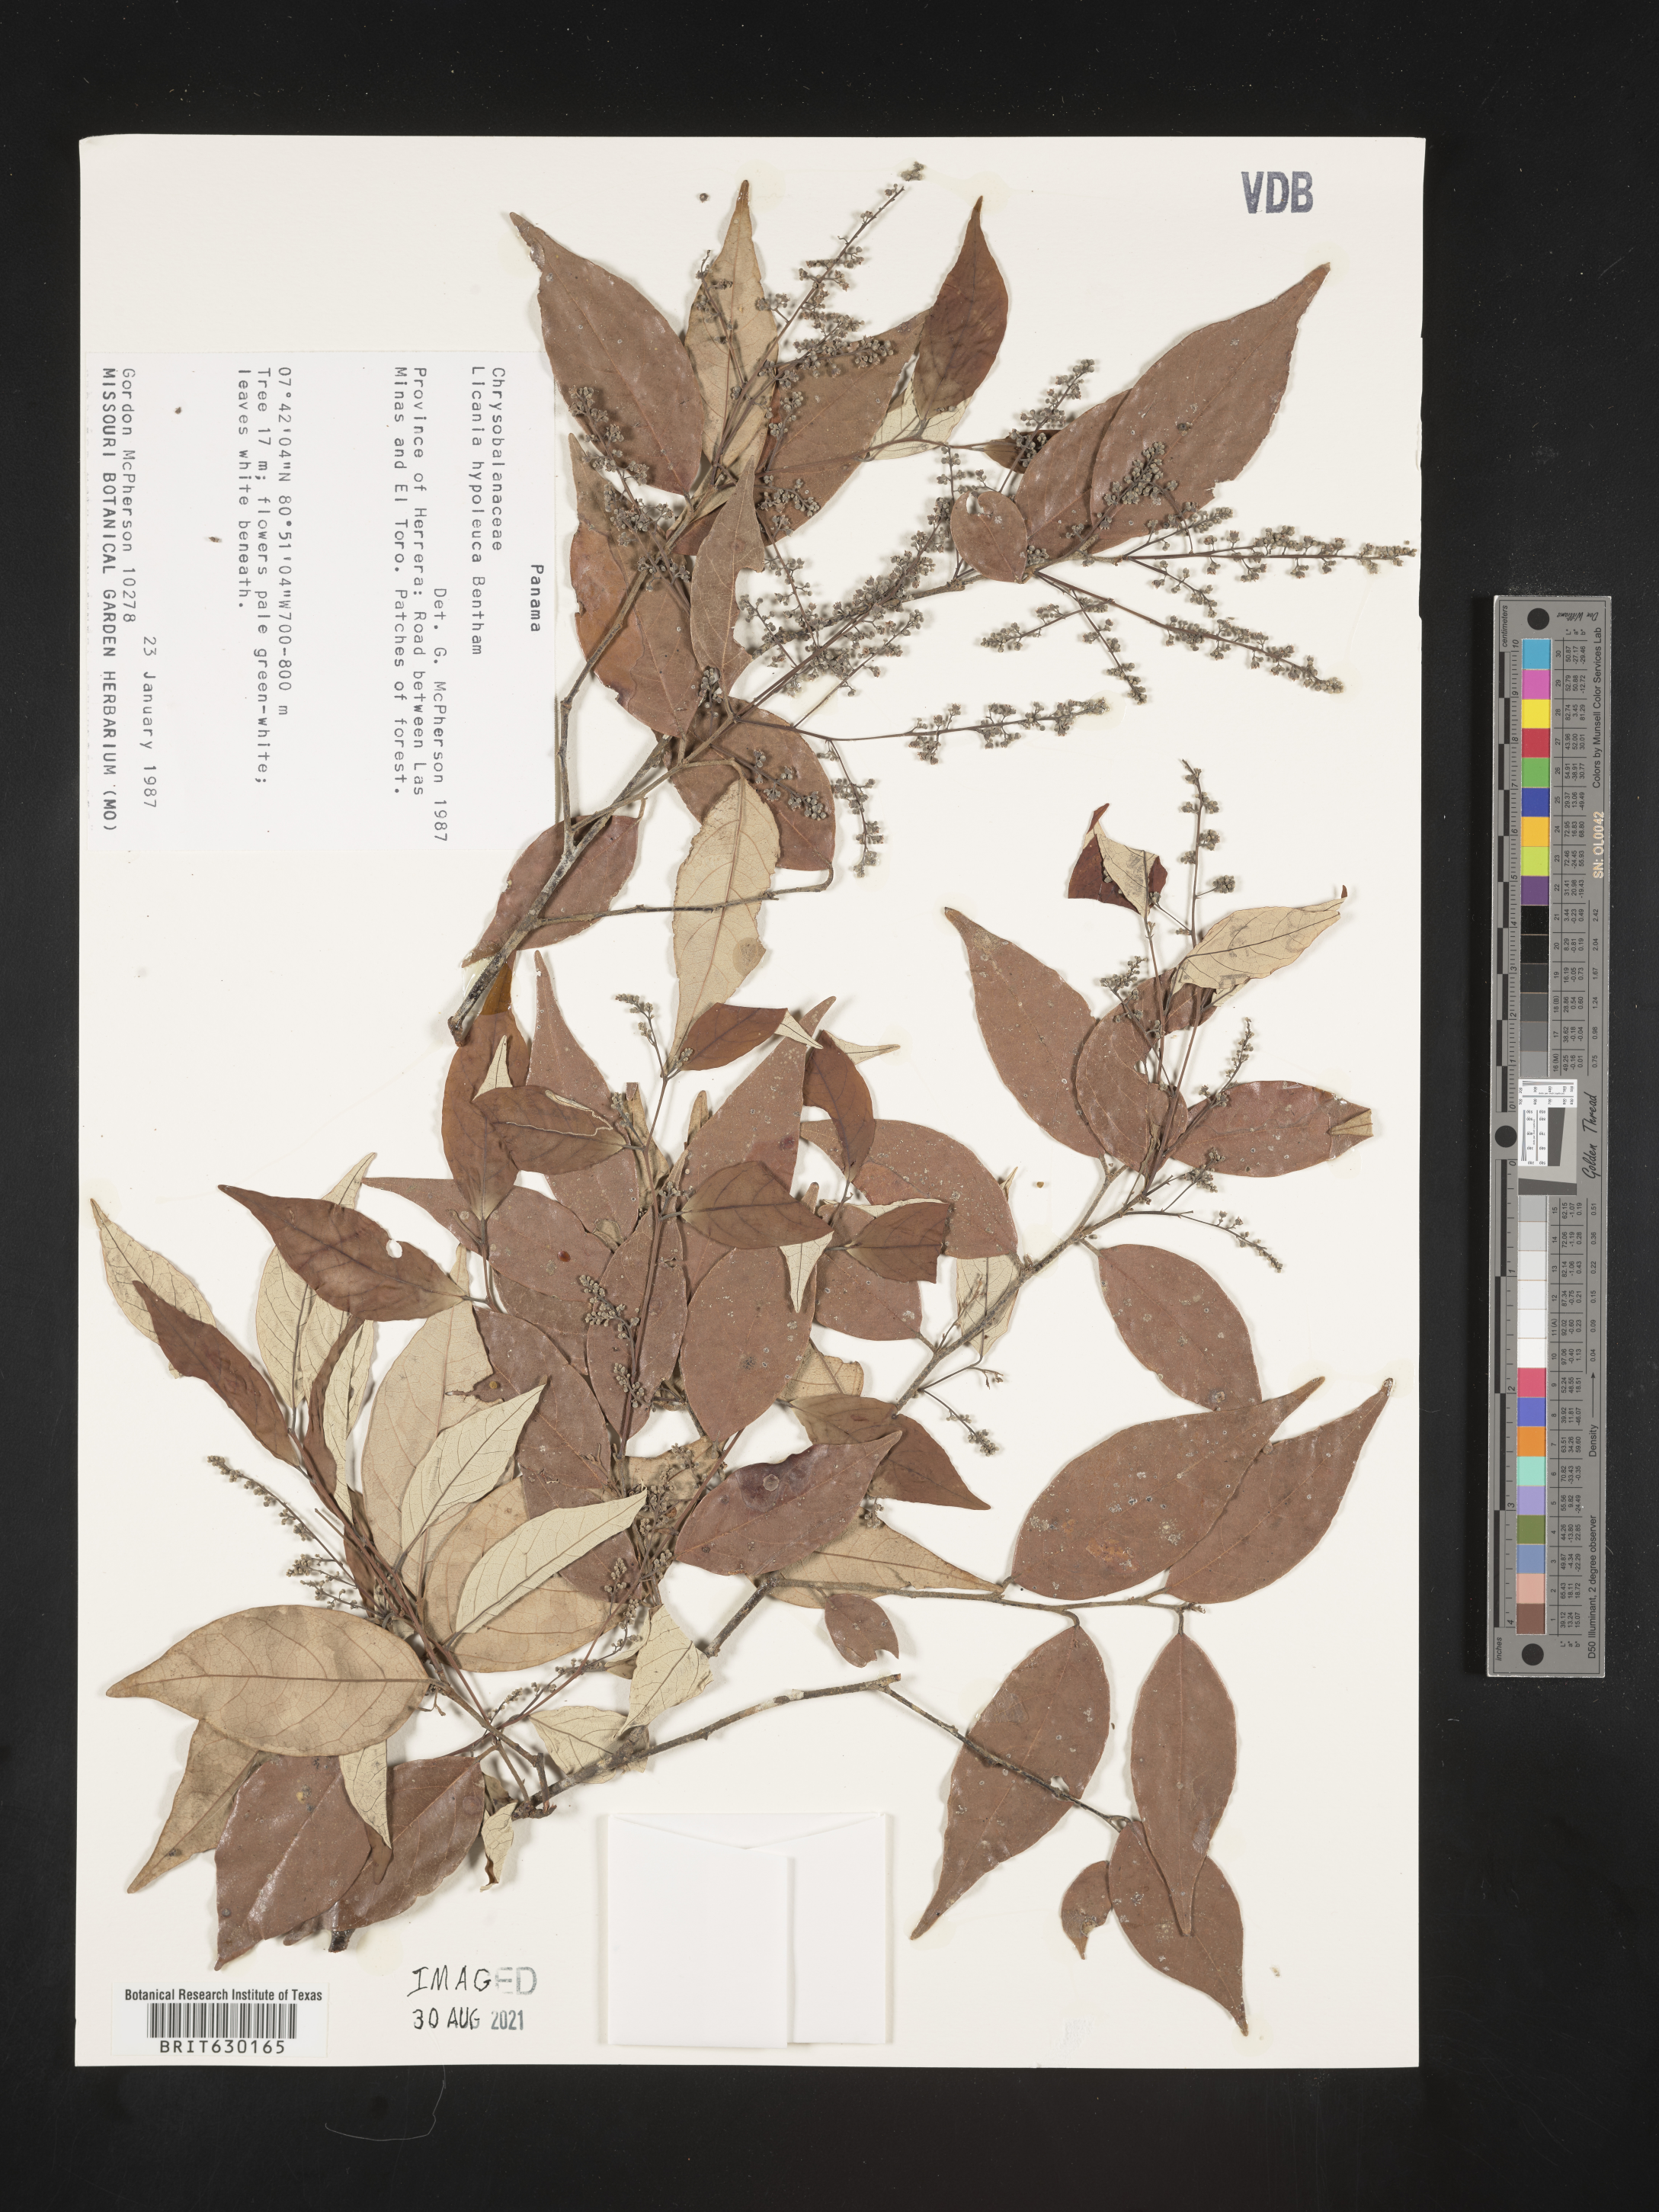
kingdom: Plantae
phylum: Tracheophyta
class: Magnoliopsida
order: Malpighiales
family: Chrysobalanaceae
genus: Licania
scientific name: Licania hypoleuca
